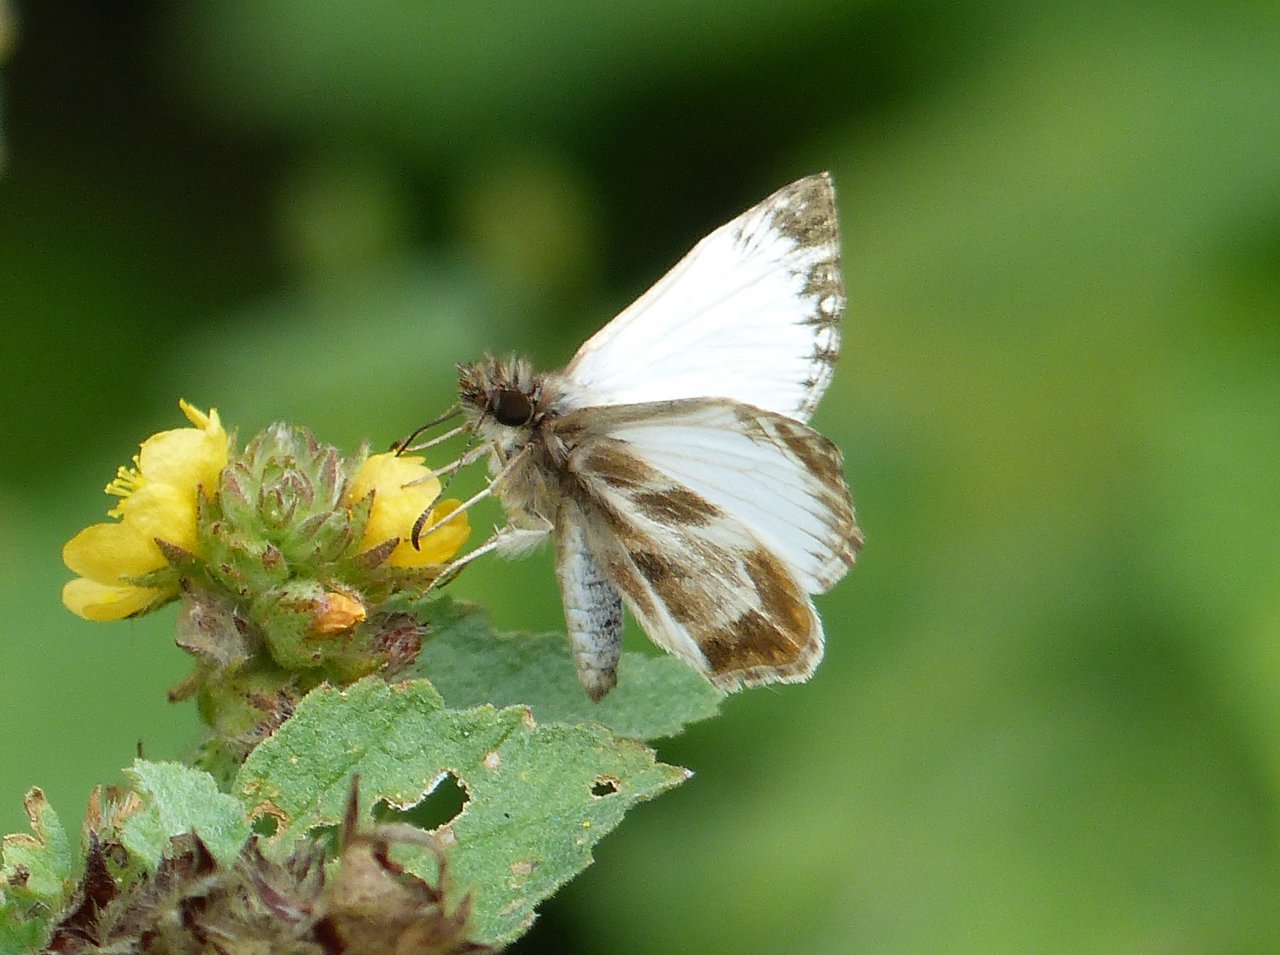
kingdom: Animalia
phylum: Arthropoda
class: Insecta
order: Lepidoptera
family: Hesperiidae
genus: Heliopetes
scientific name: Heliopetes macaira
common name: Turk's-cap White-Skipper
